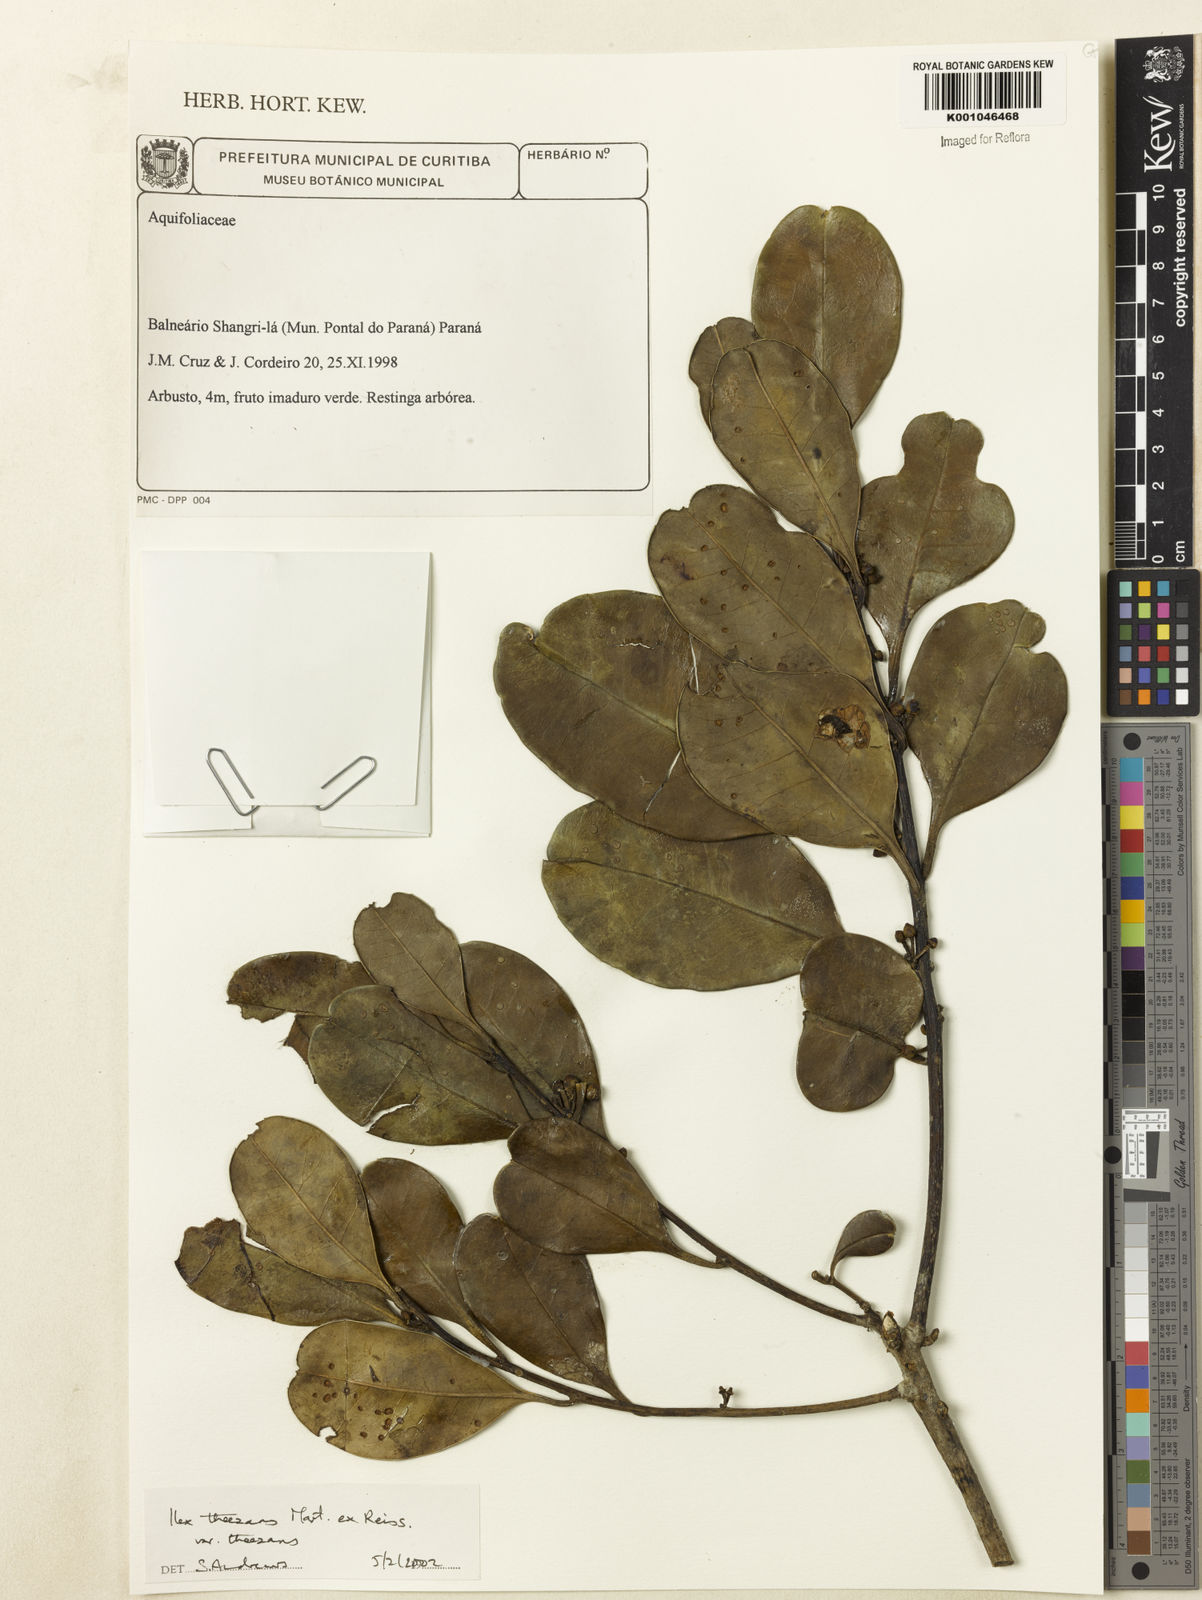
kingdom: Plantae
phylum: Tracheophyta
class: Magnoliopsida
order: Aquifoliales
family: Aquifoliaceae
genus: Ilex
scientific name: Ilex paraguariensis
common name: Paraguay tea
